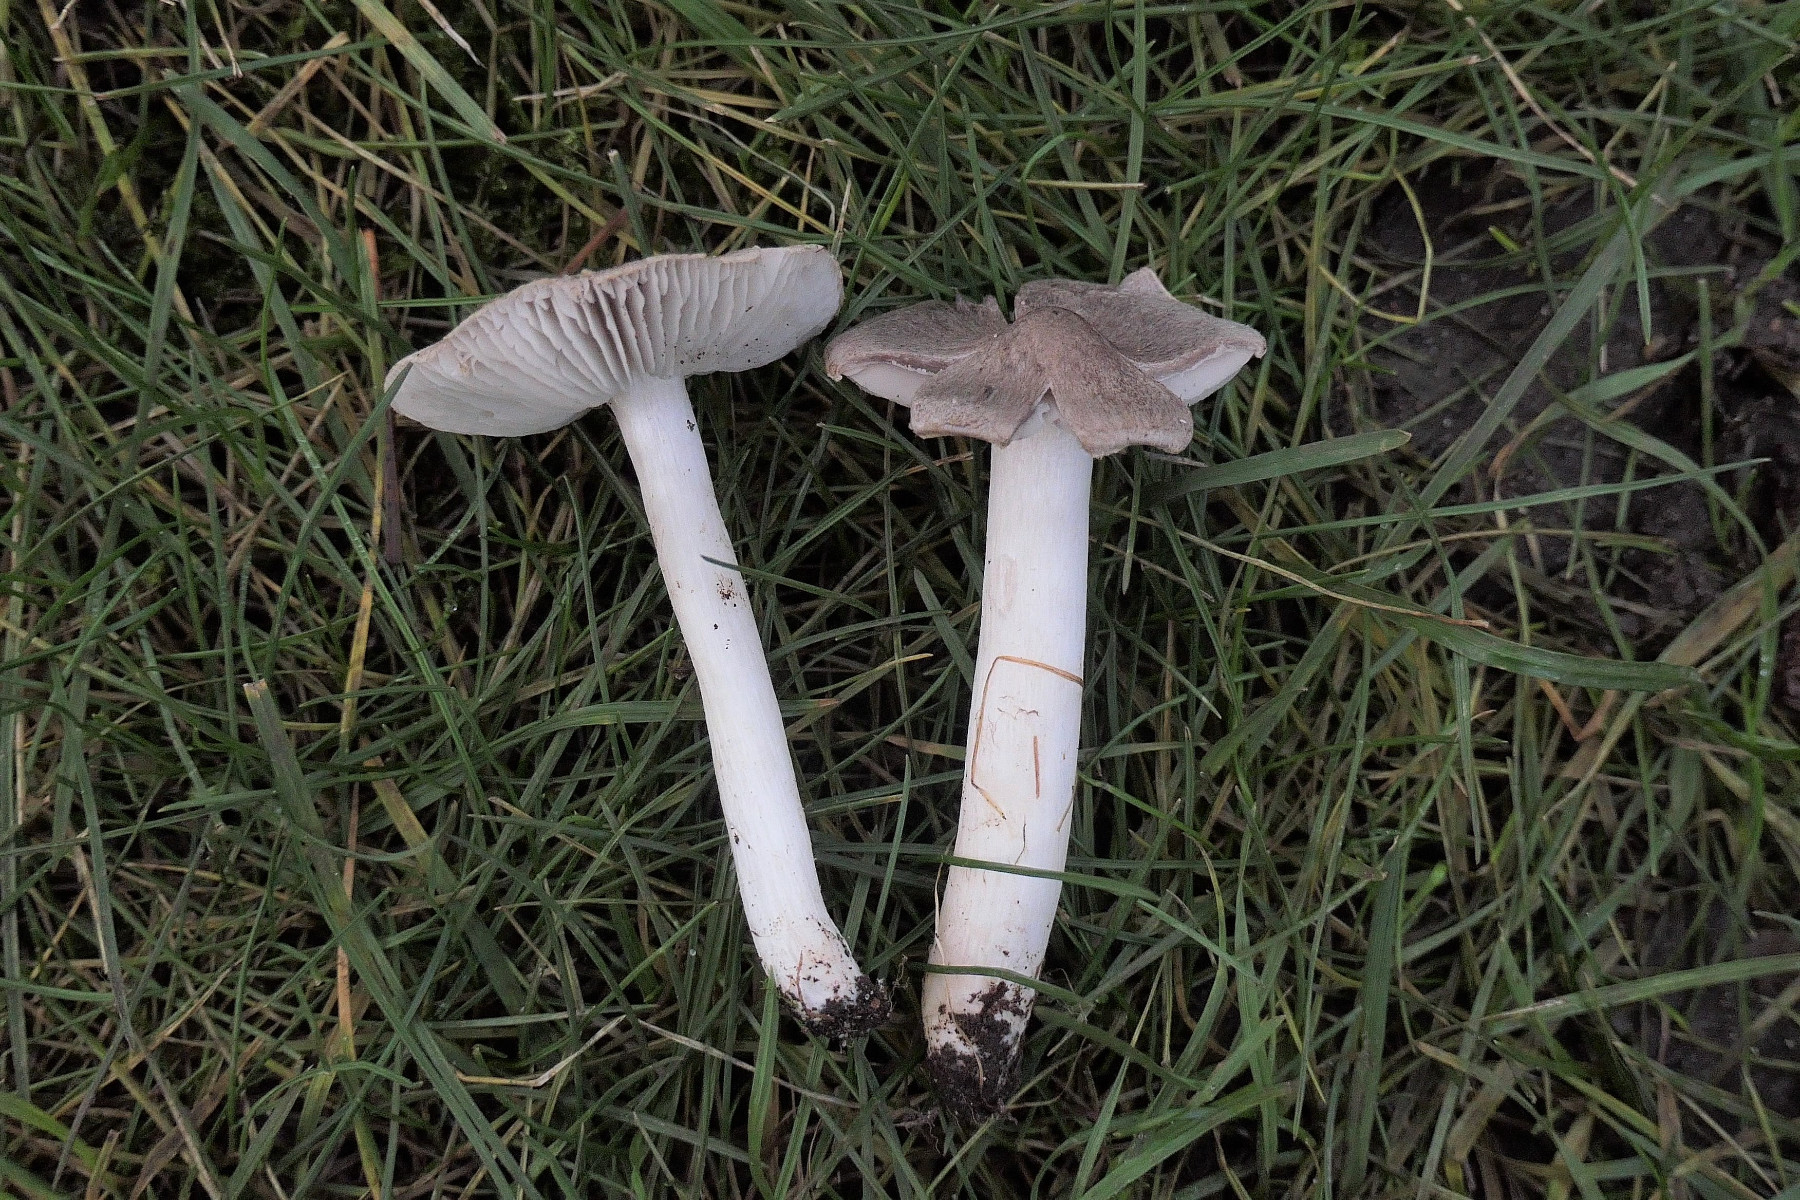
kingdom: Fungi
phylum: Basidiomycota
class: Agaricomycetes
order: Agaricales
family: Tricholomataceae
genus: Tricholoma
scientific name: Tricholoma terreum
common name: jordfarvet ridderhat
